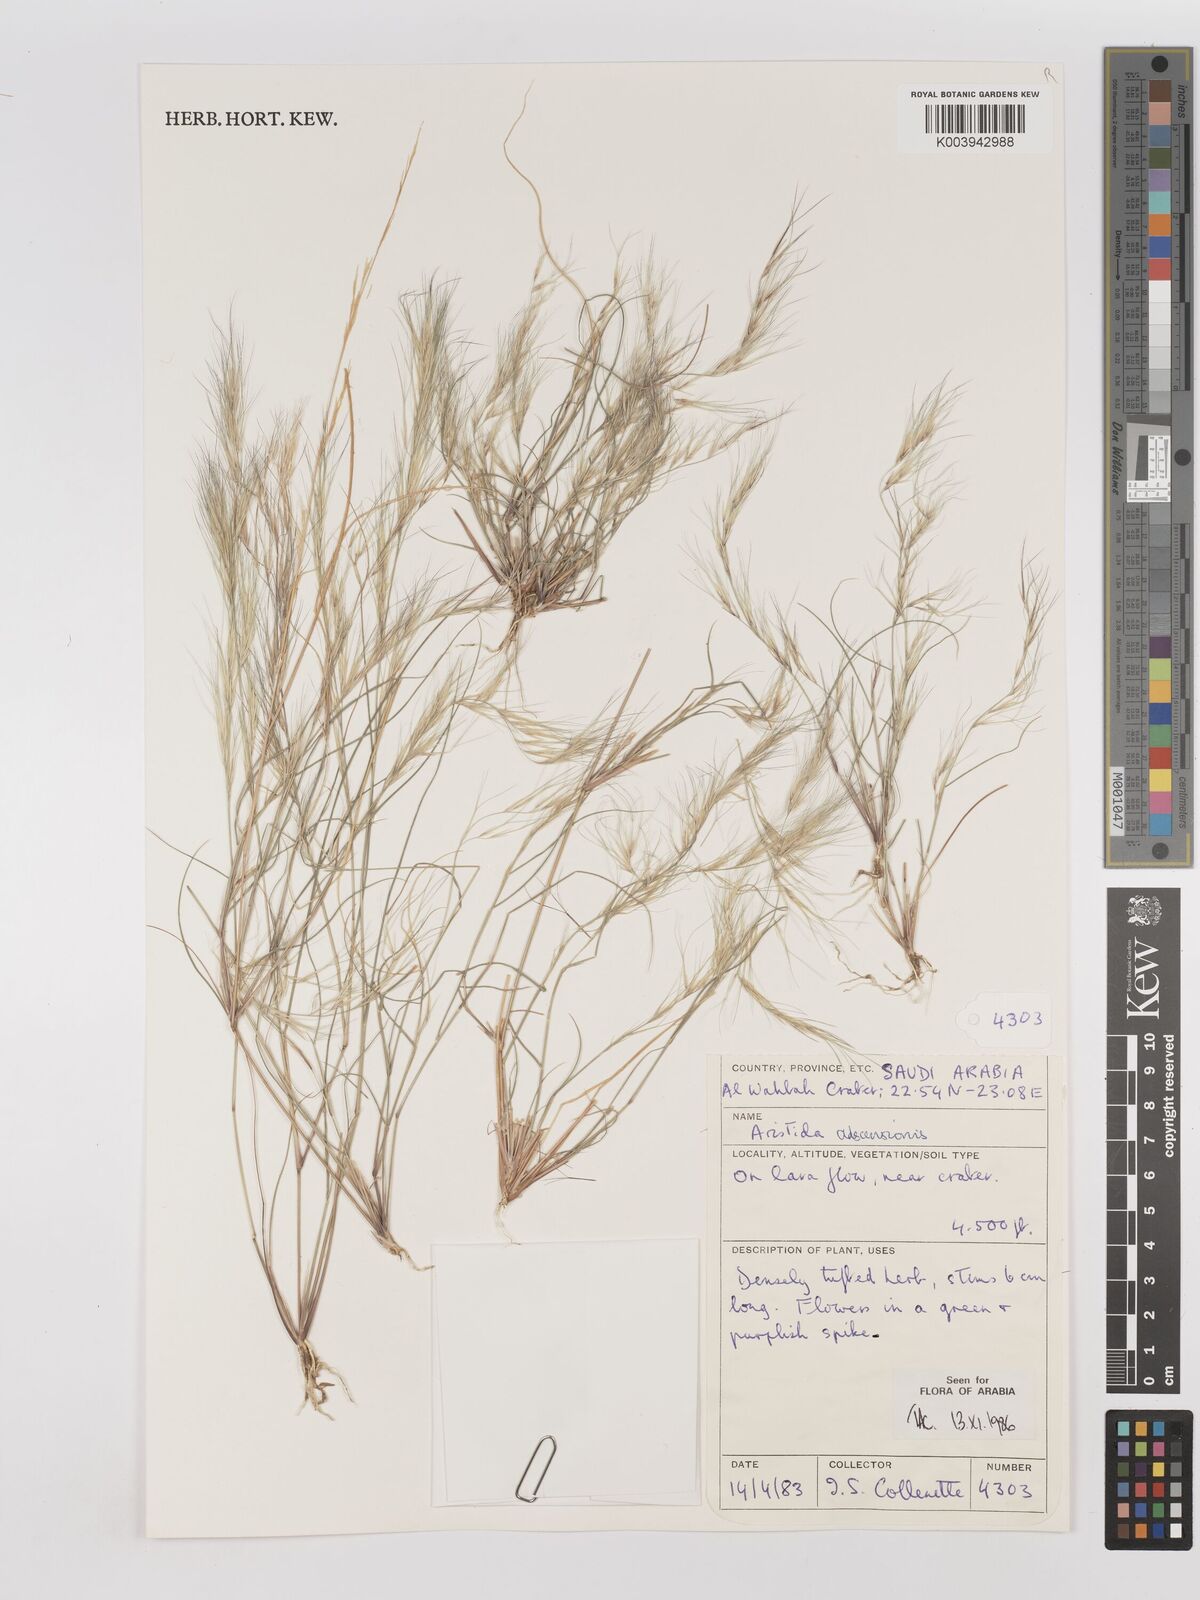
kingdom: Plantae
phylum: Tracheophyta
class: Liliopsida
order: Poales
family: Poaceae
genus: Aristida
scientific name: Aristida adscensionis
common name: Sixweeks threeawn
